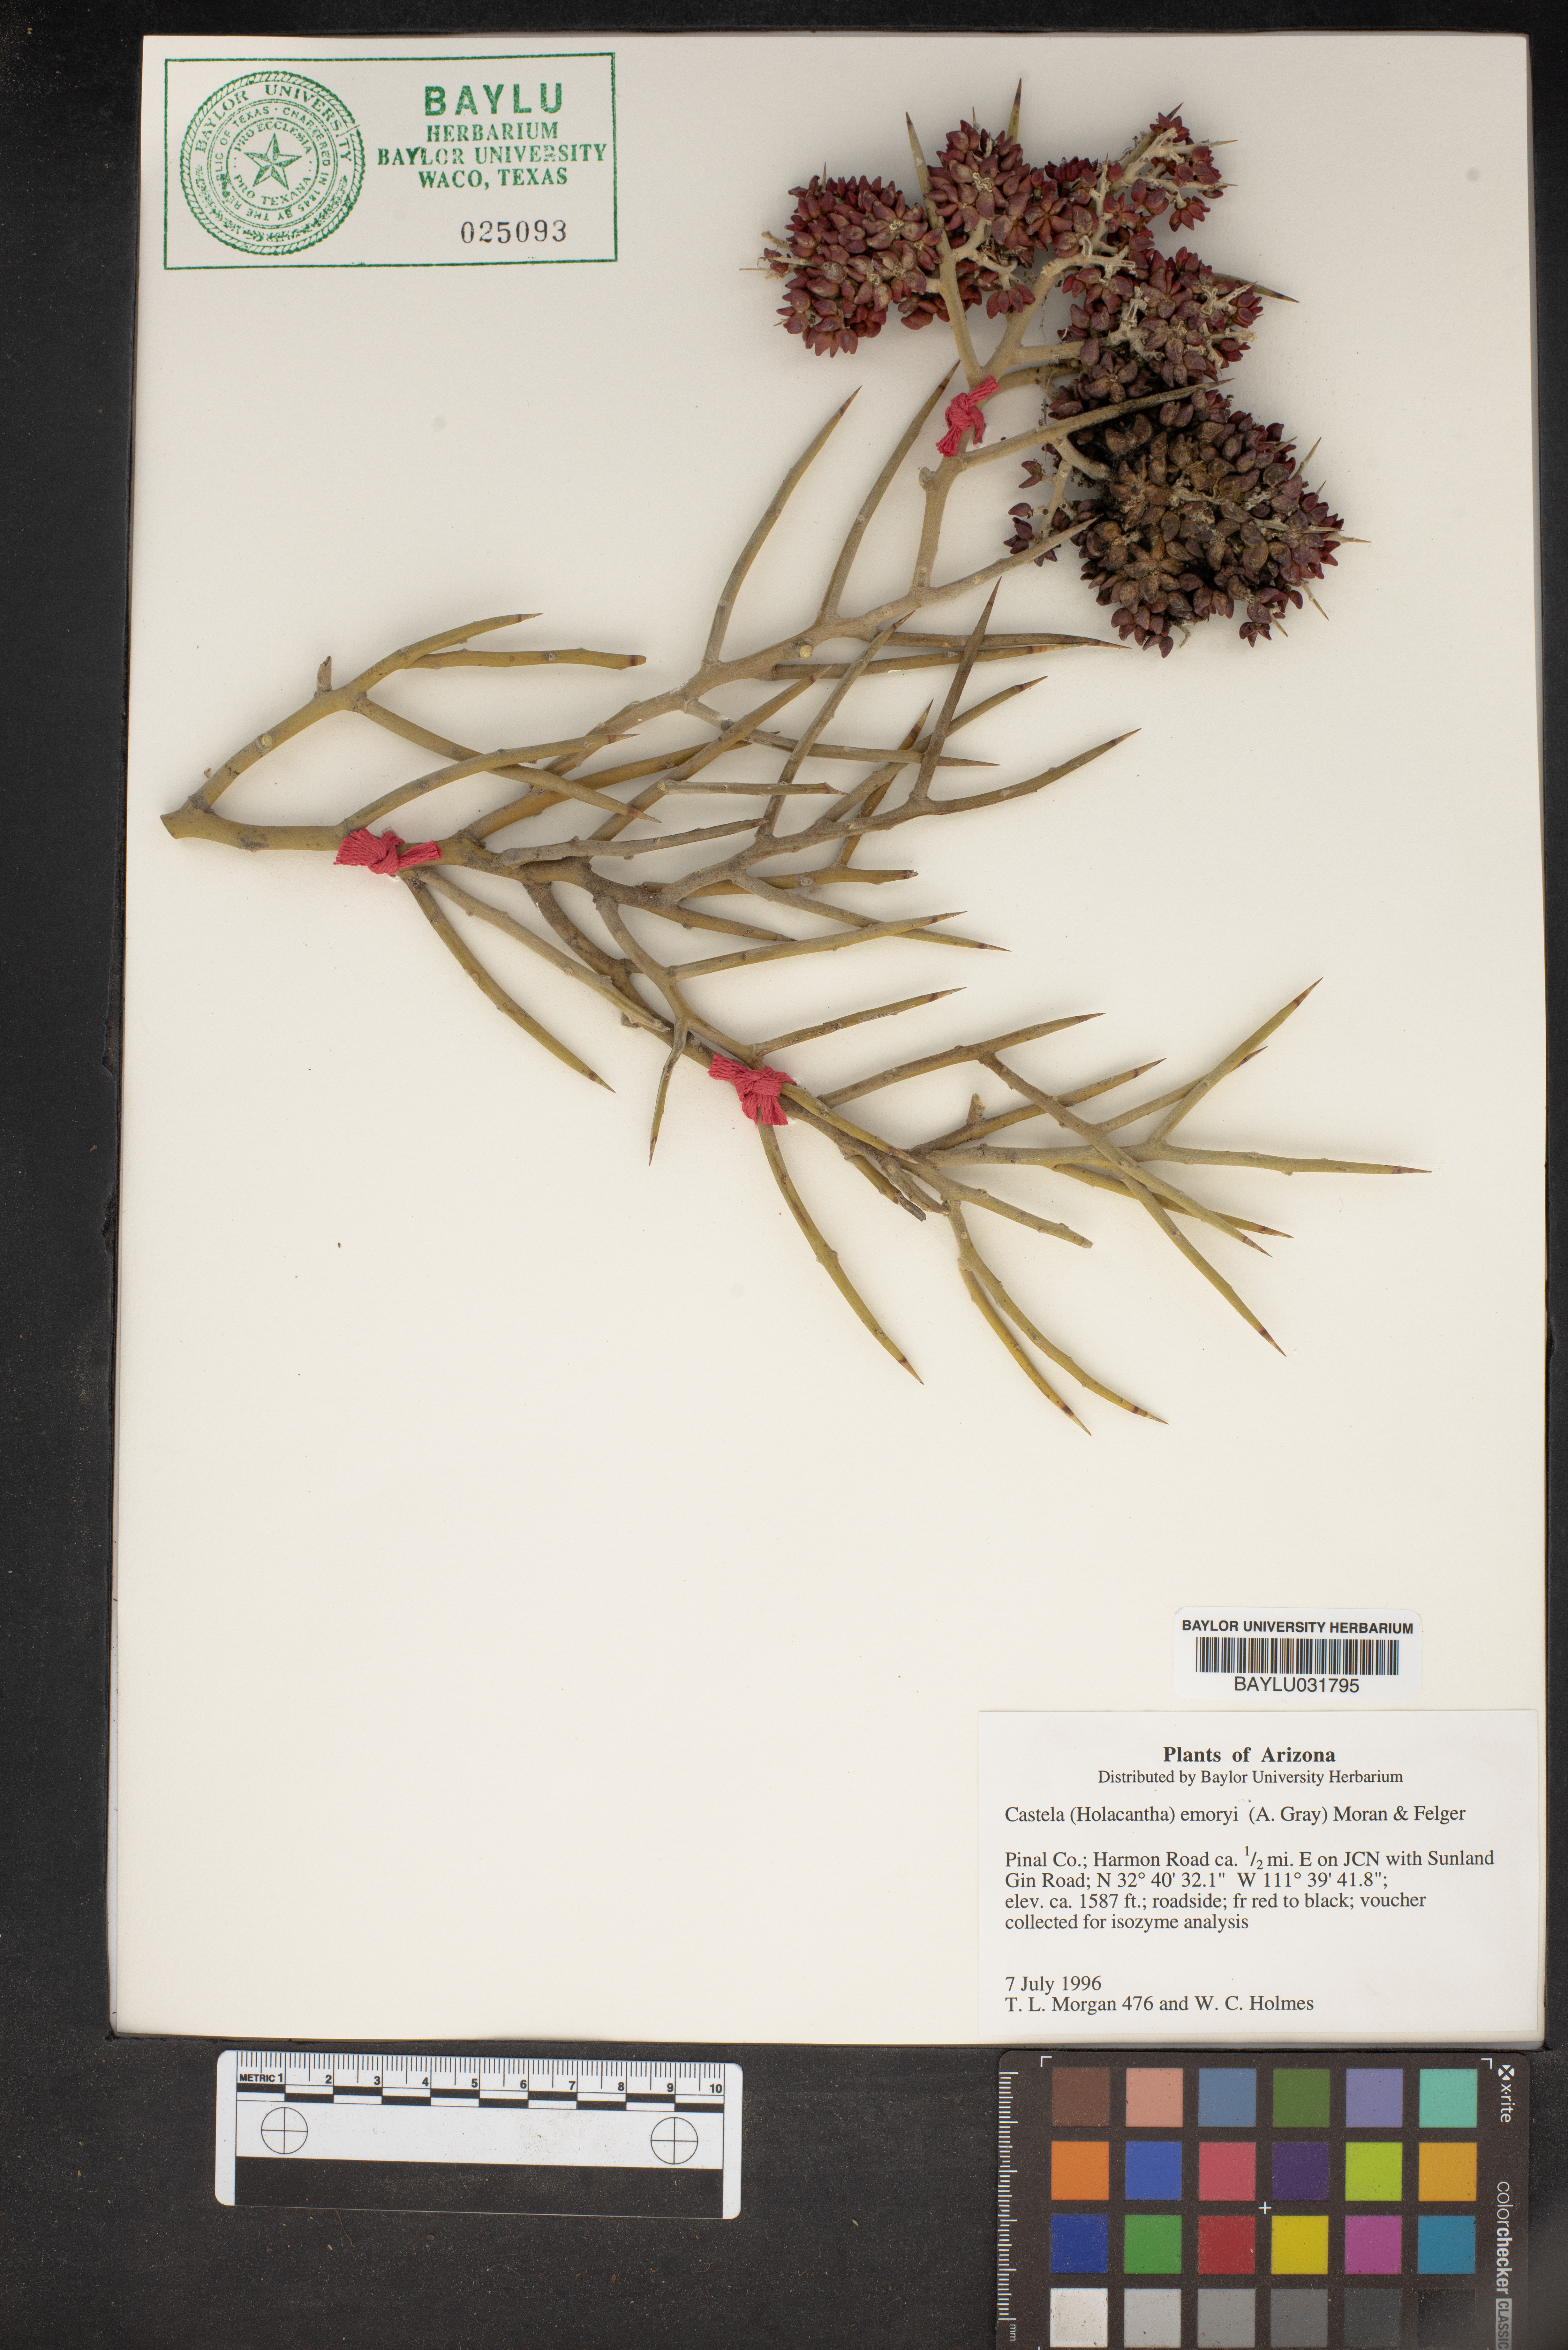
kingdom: Plantae
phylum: Tracheophyta
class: Magnoliopsida
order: Sapindales
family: Simaroubaceae
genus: Holacantha
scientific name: Holacantha emoryi
